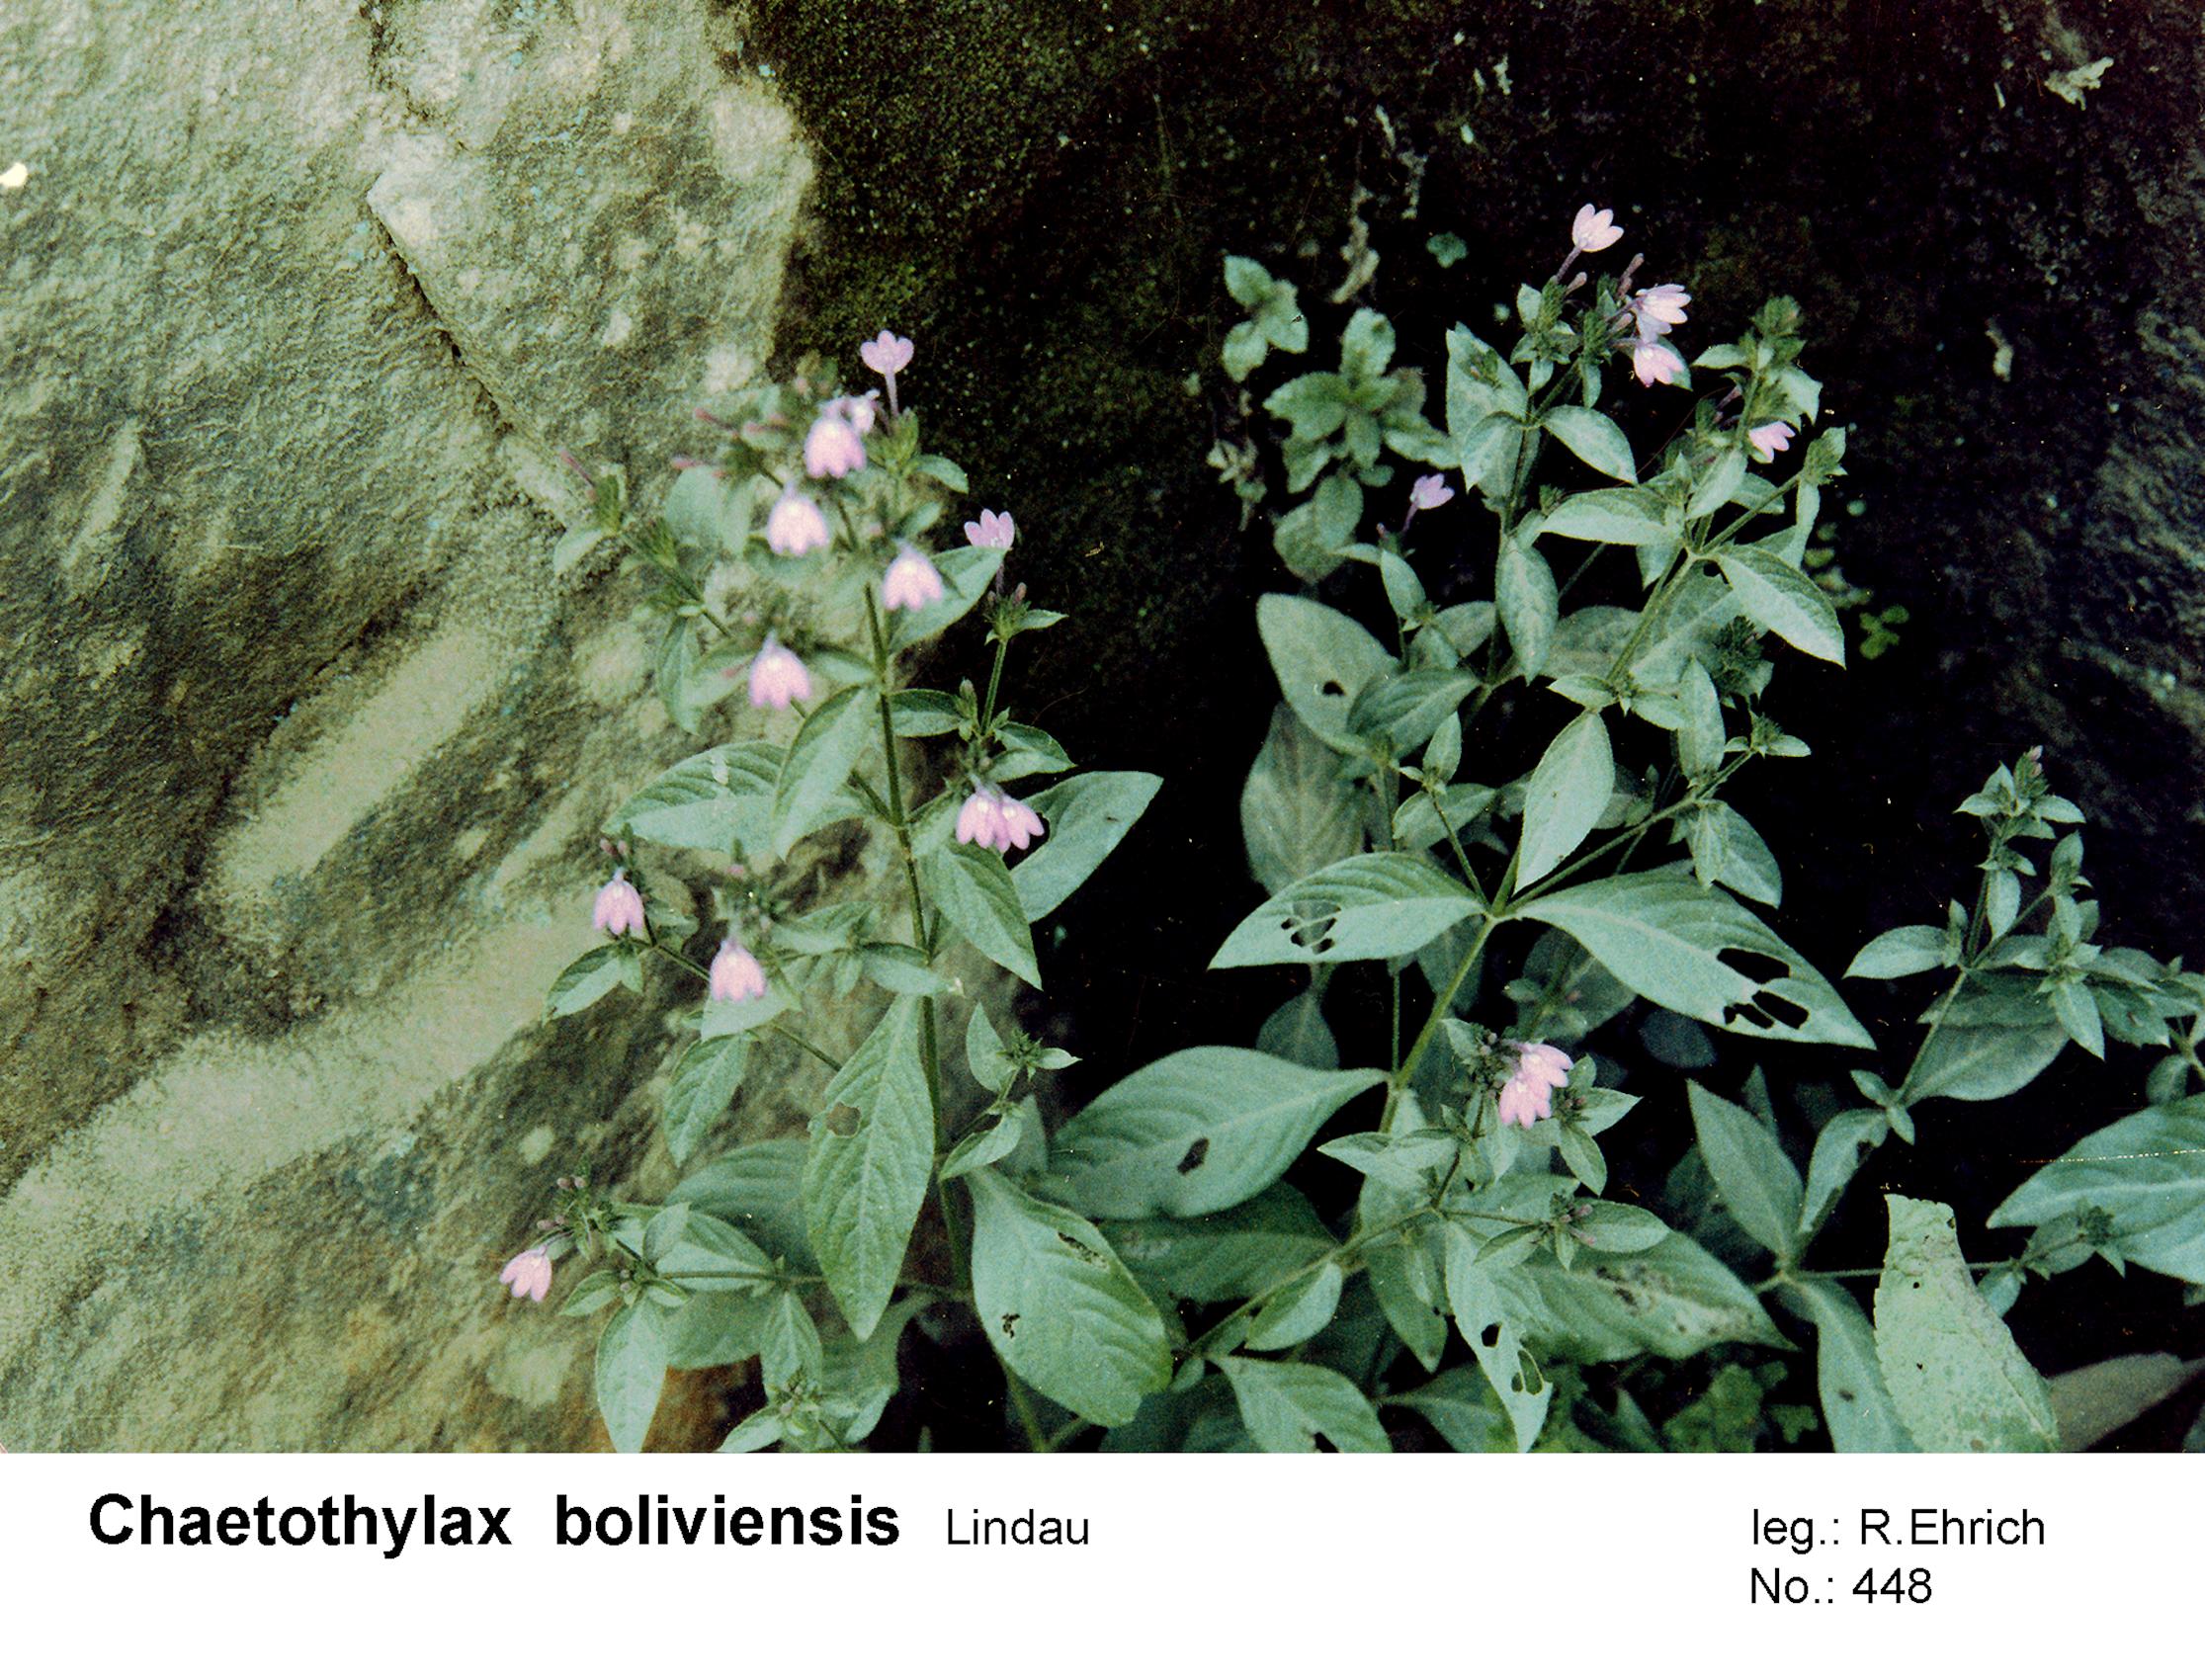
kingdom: Plantae
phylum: Tracheophyta
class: Magnoliopsida
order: Lamiales
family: Acanthaceae
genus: Justicia
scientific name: Justicia goudotii
